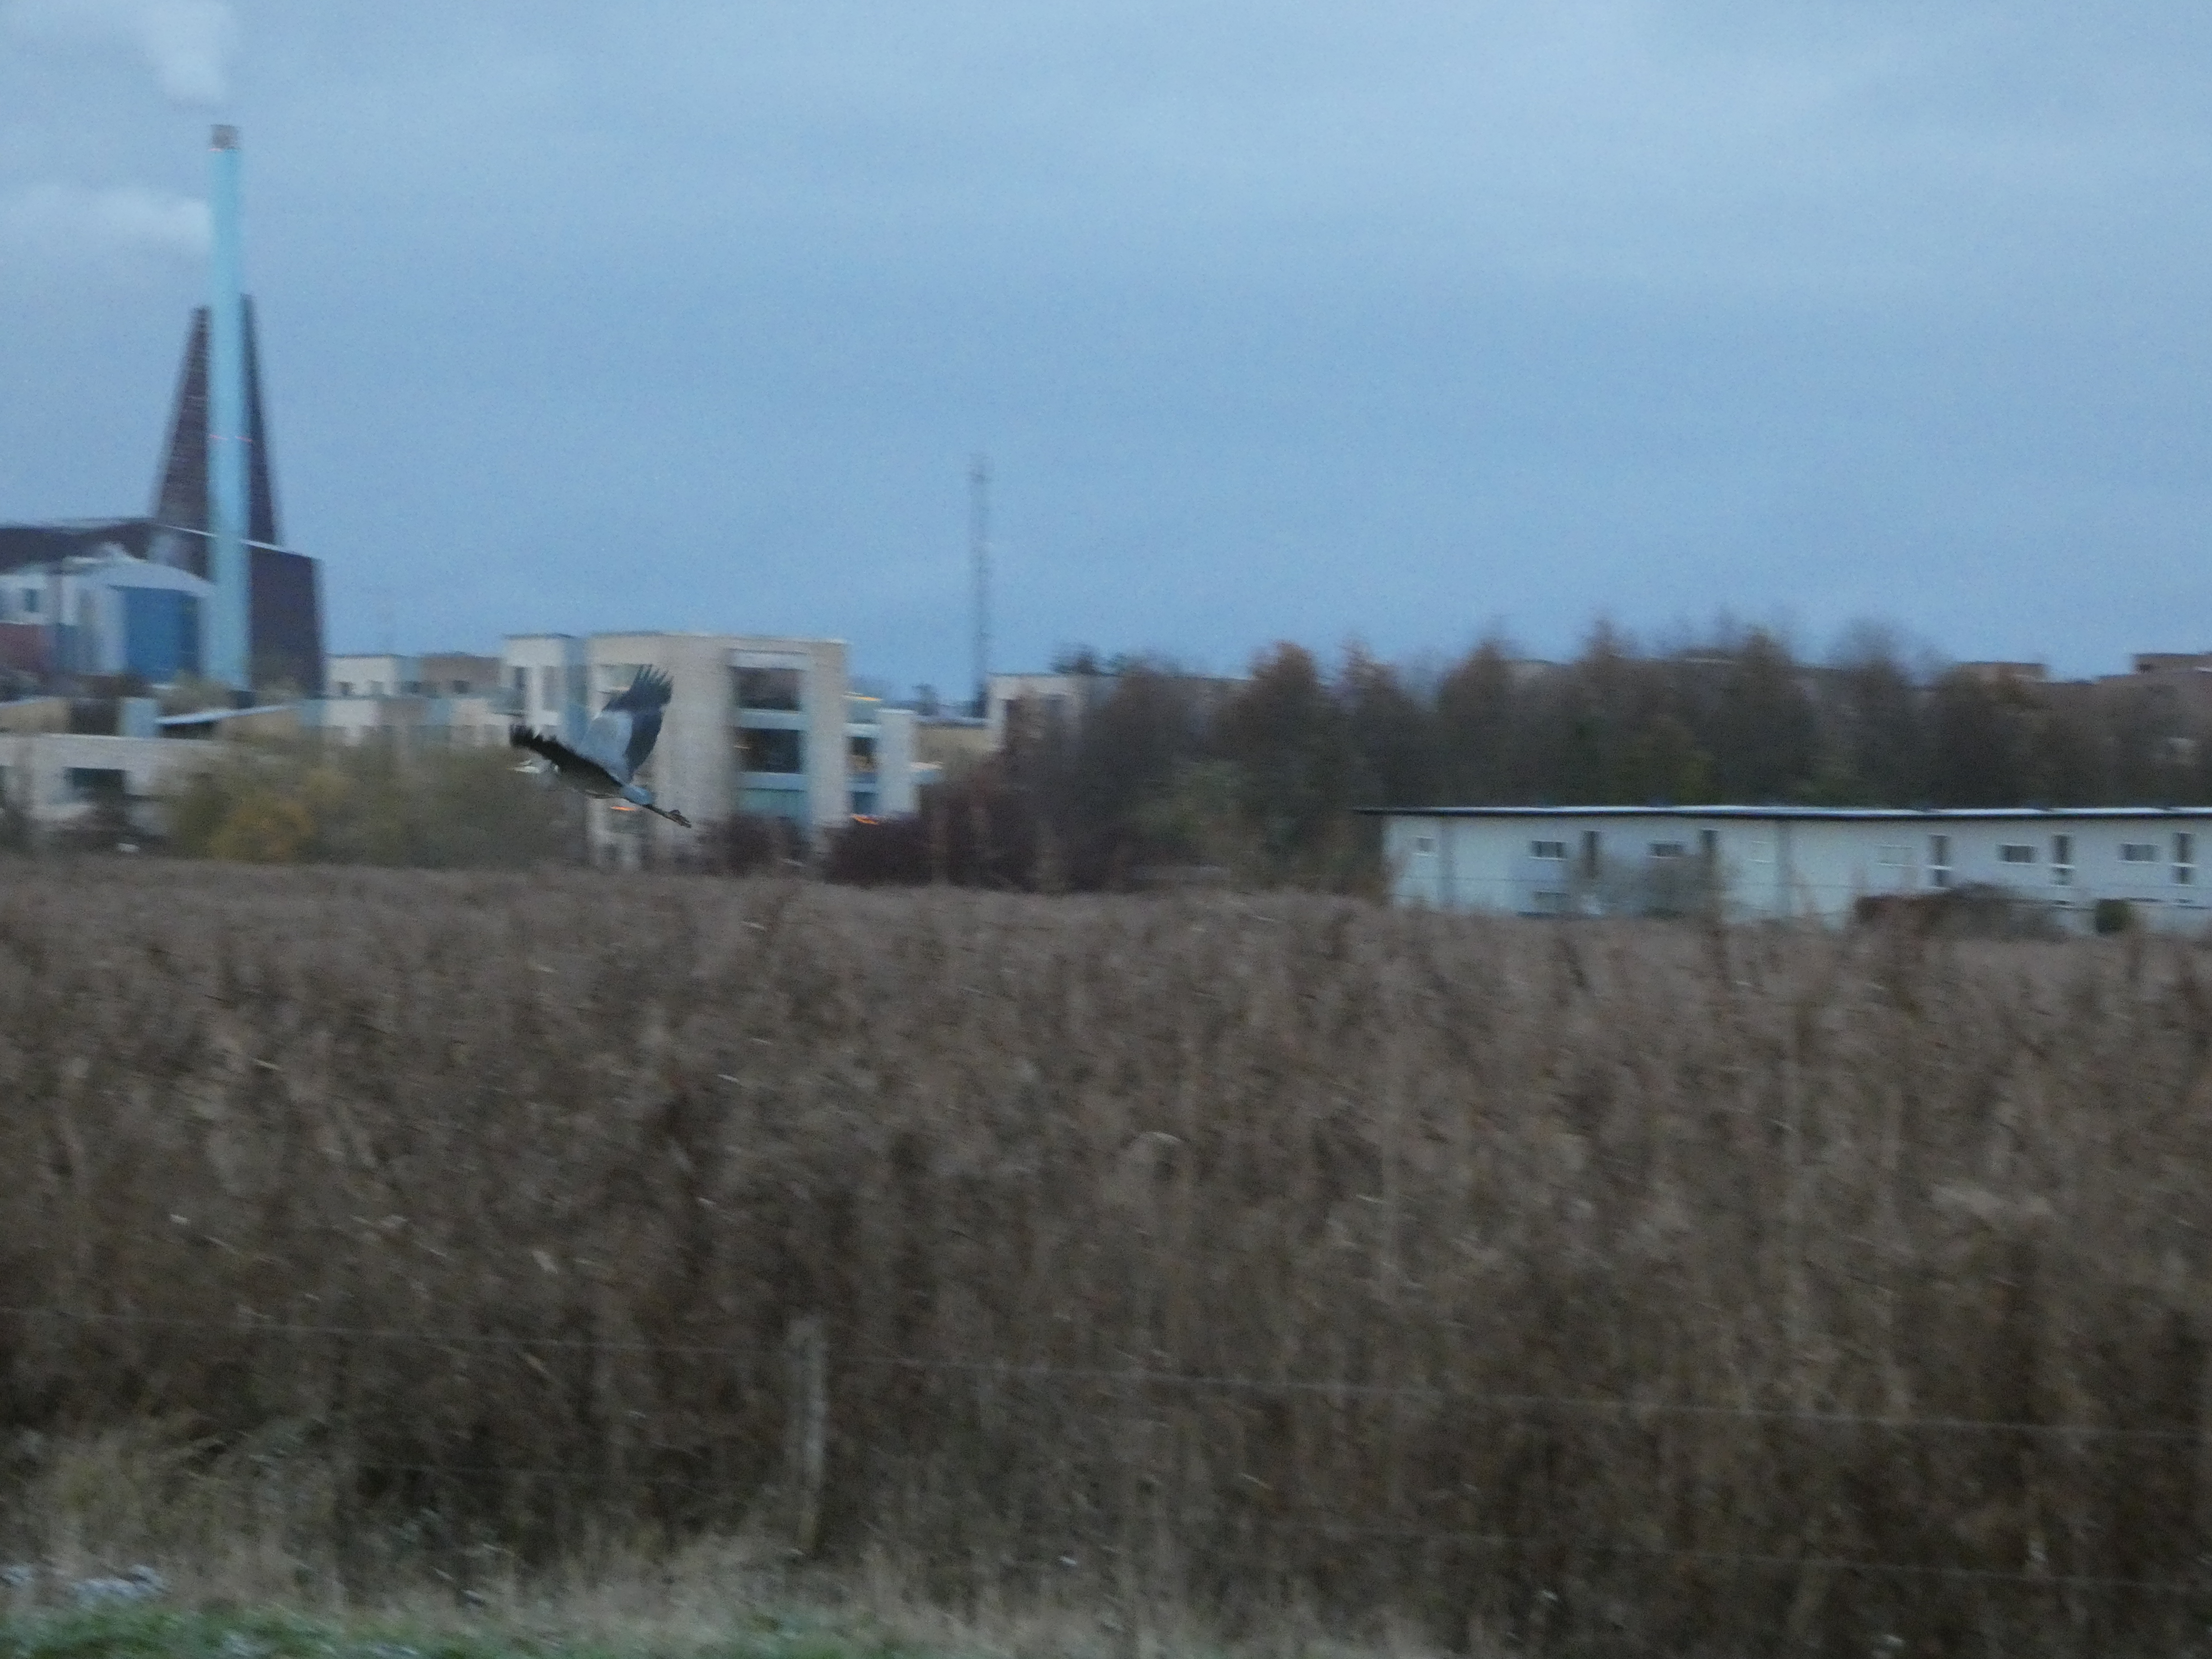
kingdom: Animalia
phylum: Chordata
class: Aves
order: Pelecaniformes
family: Ardeidae
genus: Ardea
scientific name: Ardea cinerea
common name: Fiskehejre
